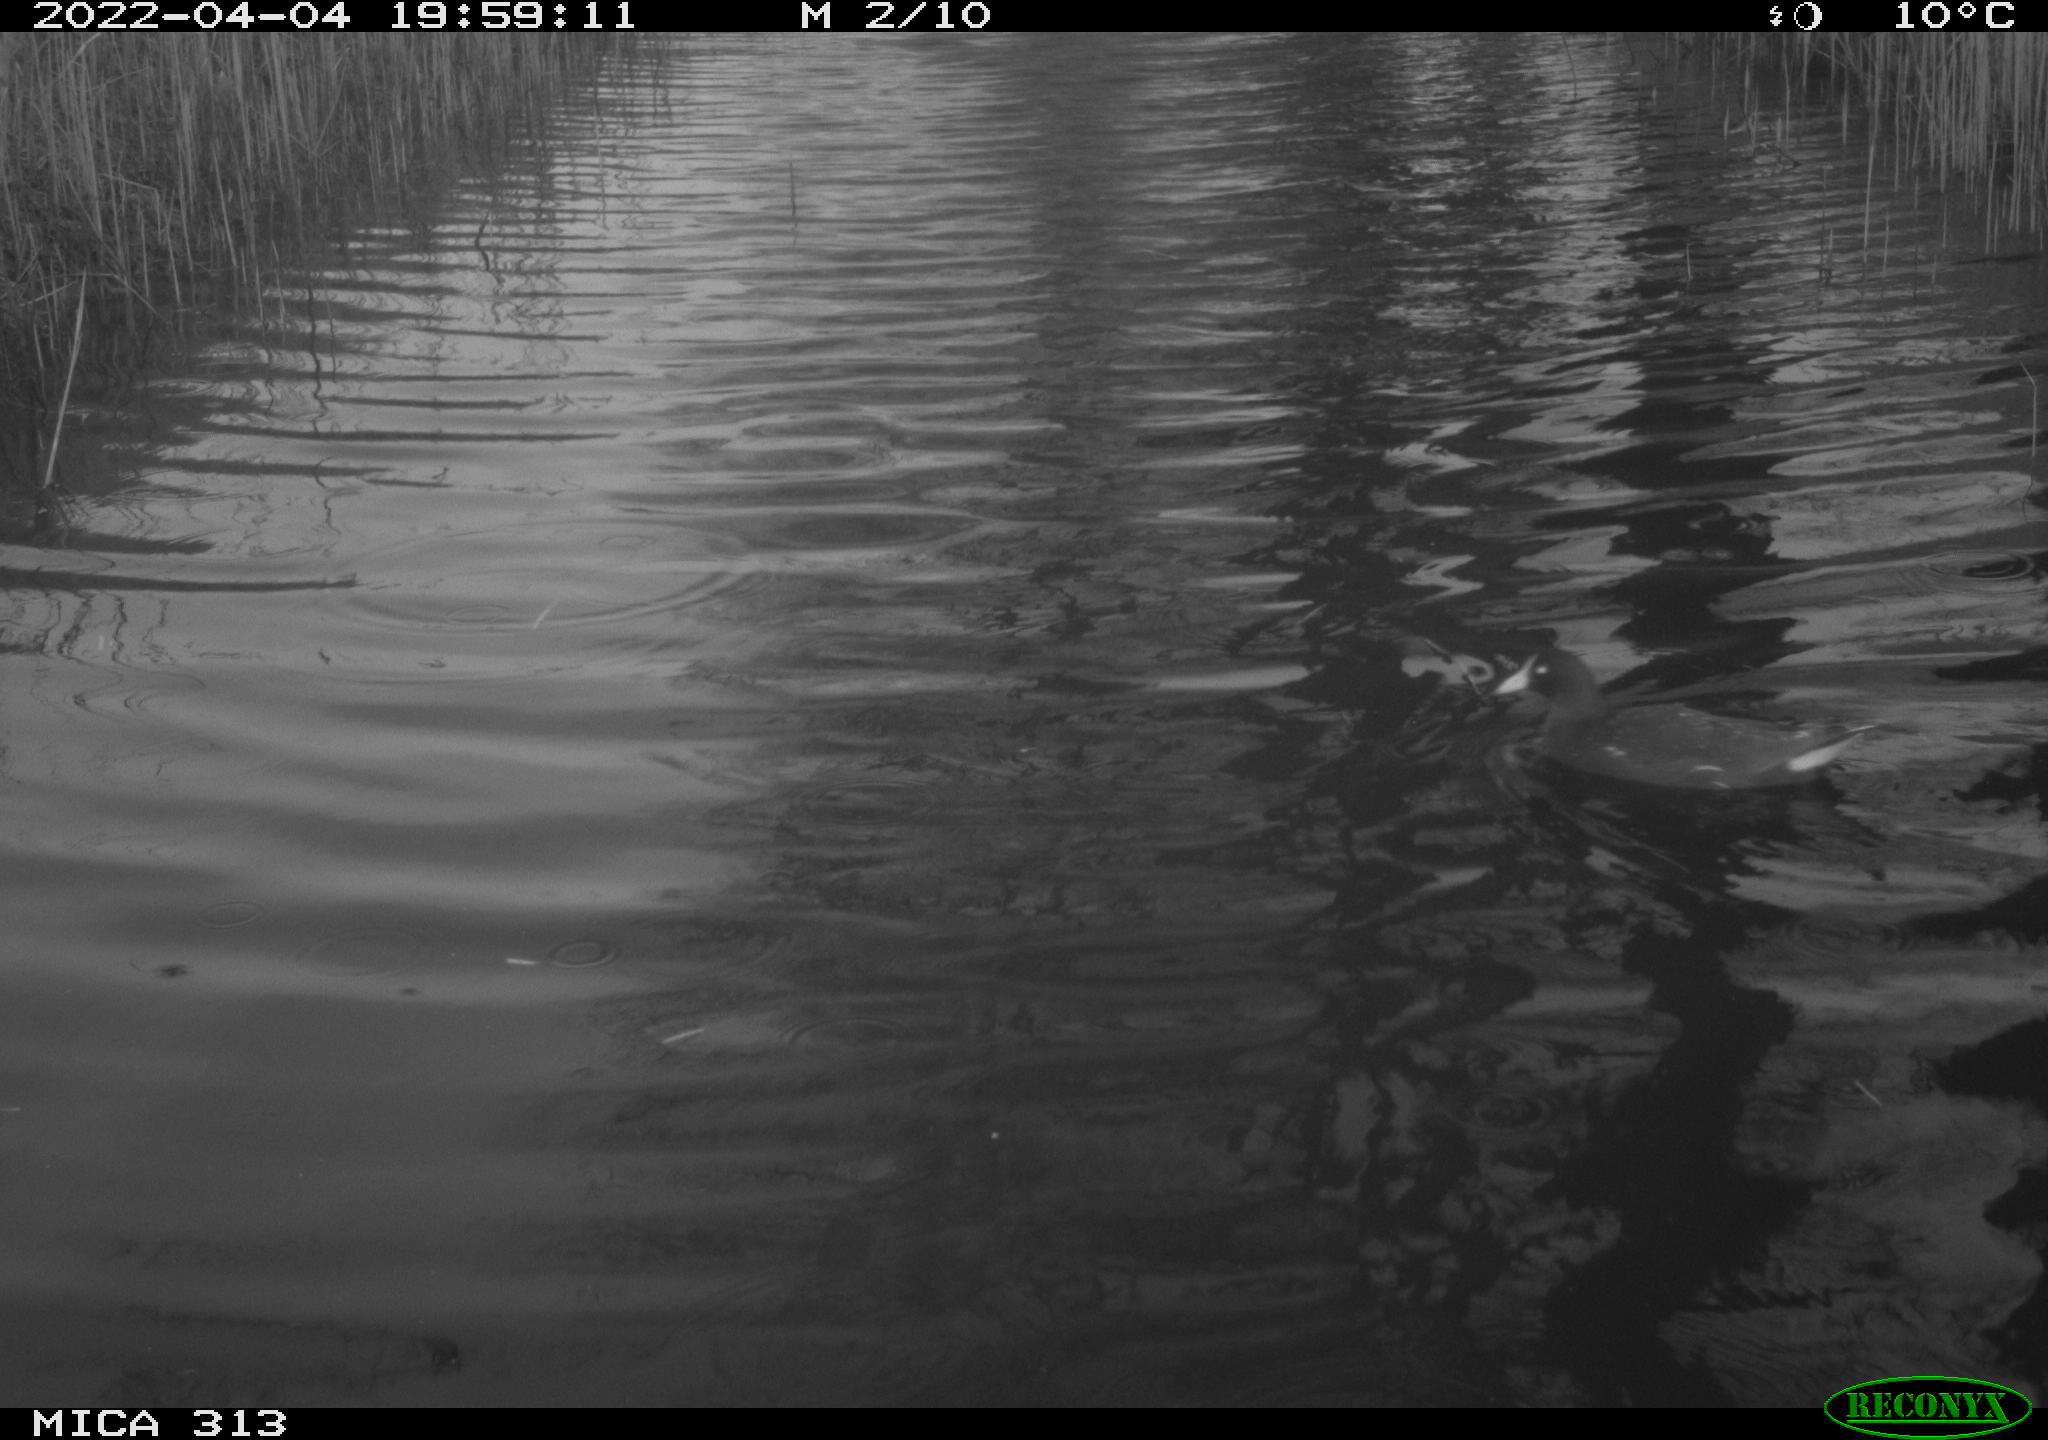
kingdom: Animalia
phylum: Chordata
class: Aves
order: Gruiformes
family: Rallidae
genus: Gallinula
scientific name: Gallinula chloropus
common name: Common moorhen
